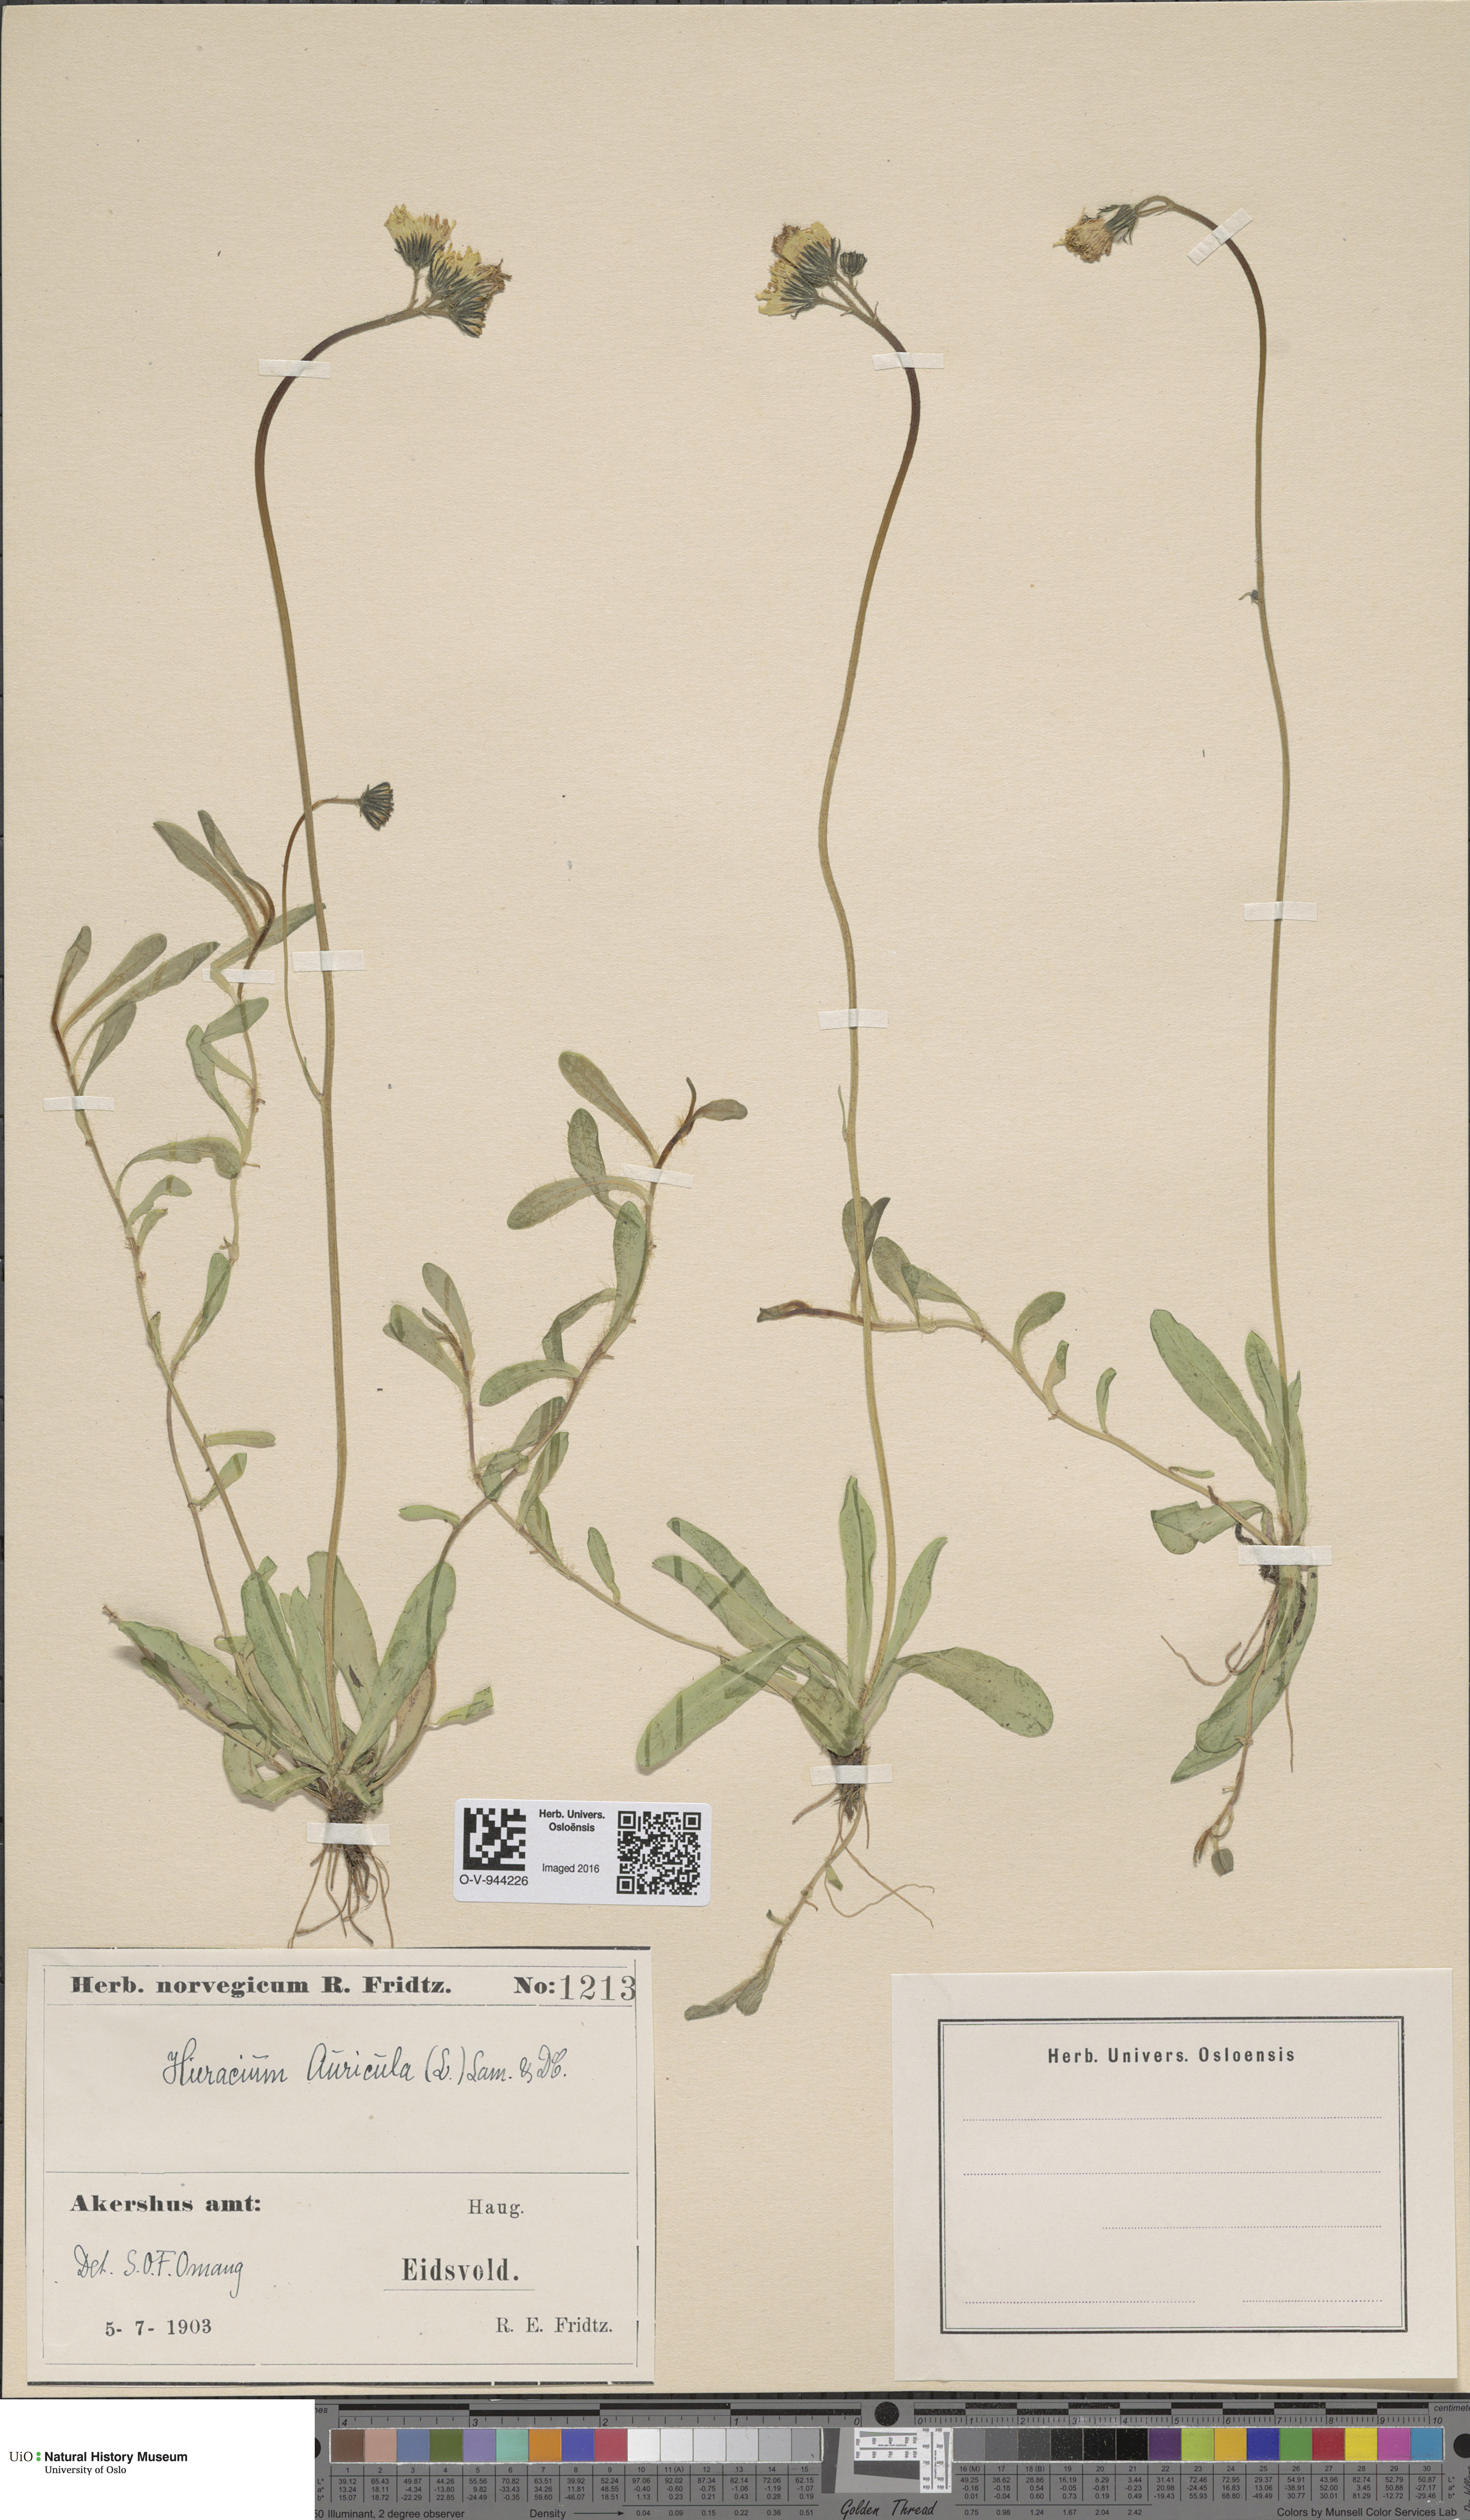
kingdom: Plantae
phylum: Tracheophyta
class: Magnoliopsida
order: Asterales
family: Asteraceae
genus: Pilosella
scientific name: Pilosella lactucella
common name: Glaucous fox-and-cubs
